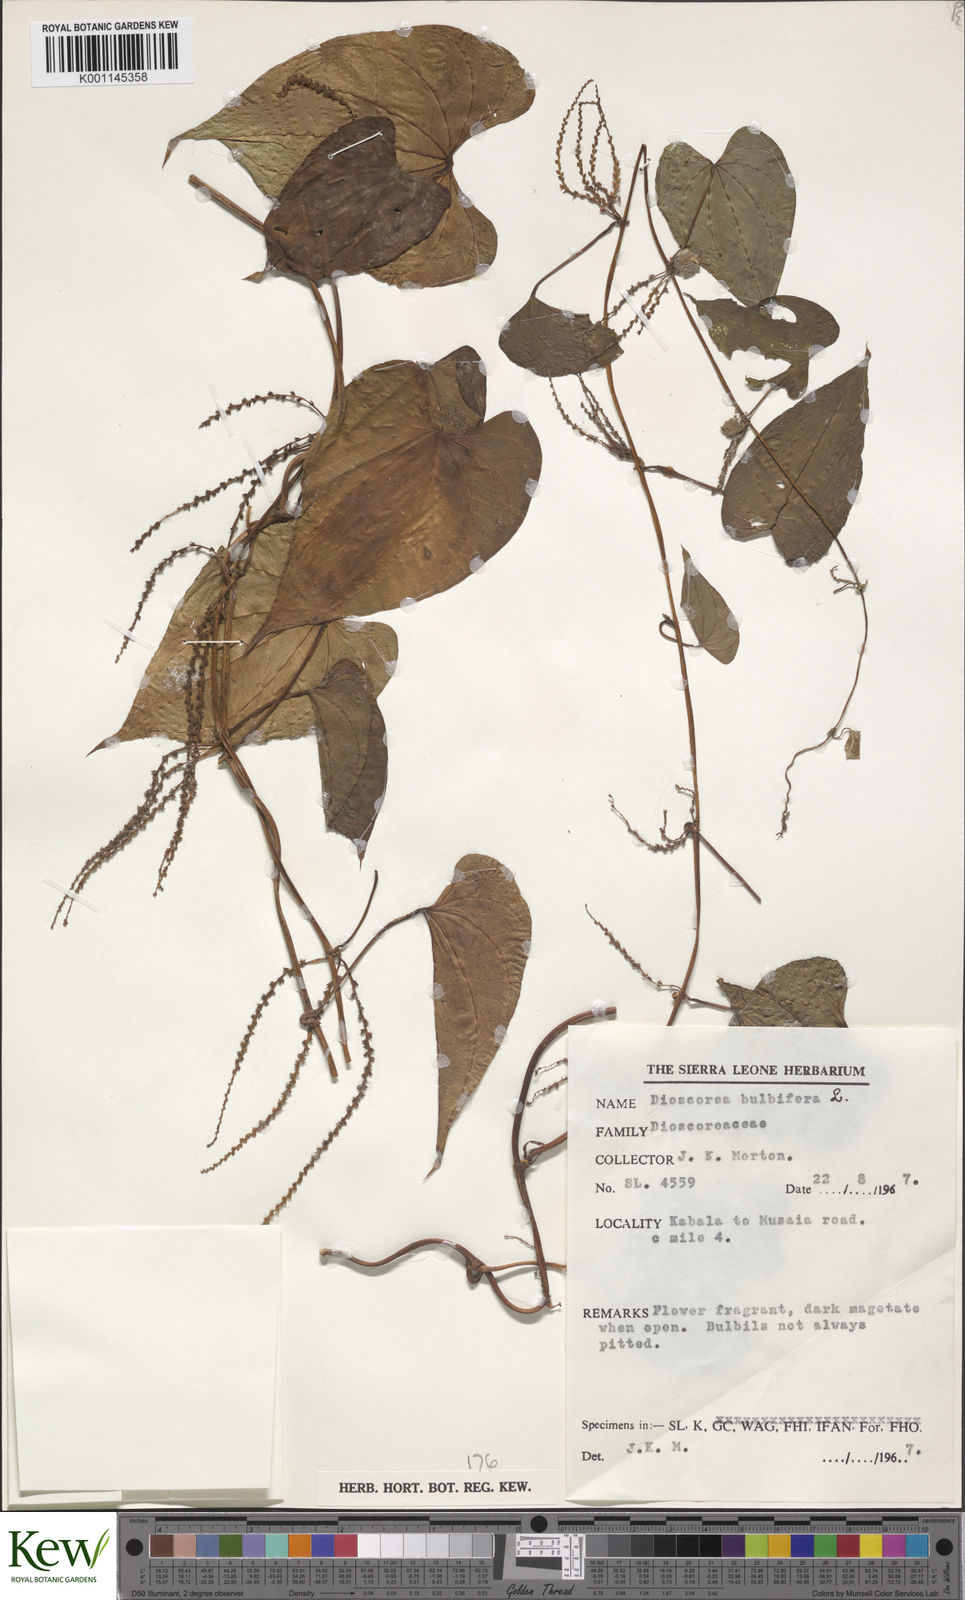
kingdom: Plantae
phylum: Tracheophyta
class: Liliopsida
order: Dioscoreales
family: Dioscoreaceae
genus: Dioscorea
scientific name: Dioscorea bulbifera
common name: Air yam
